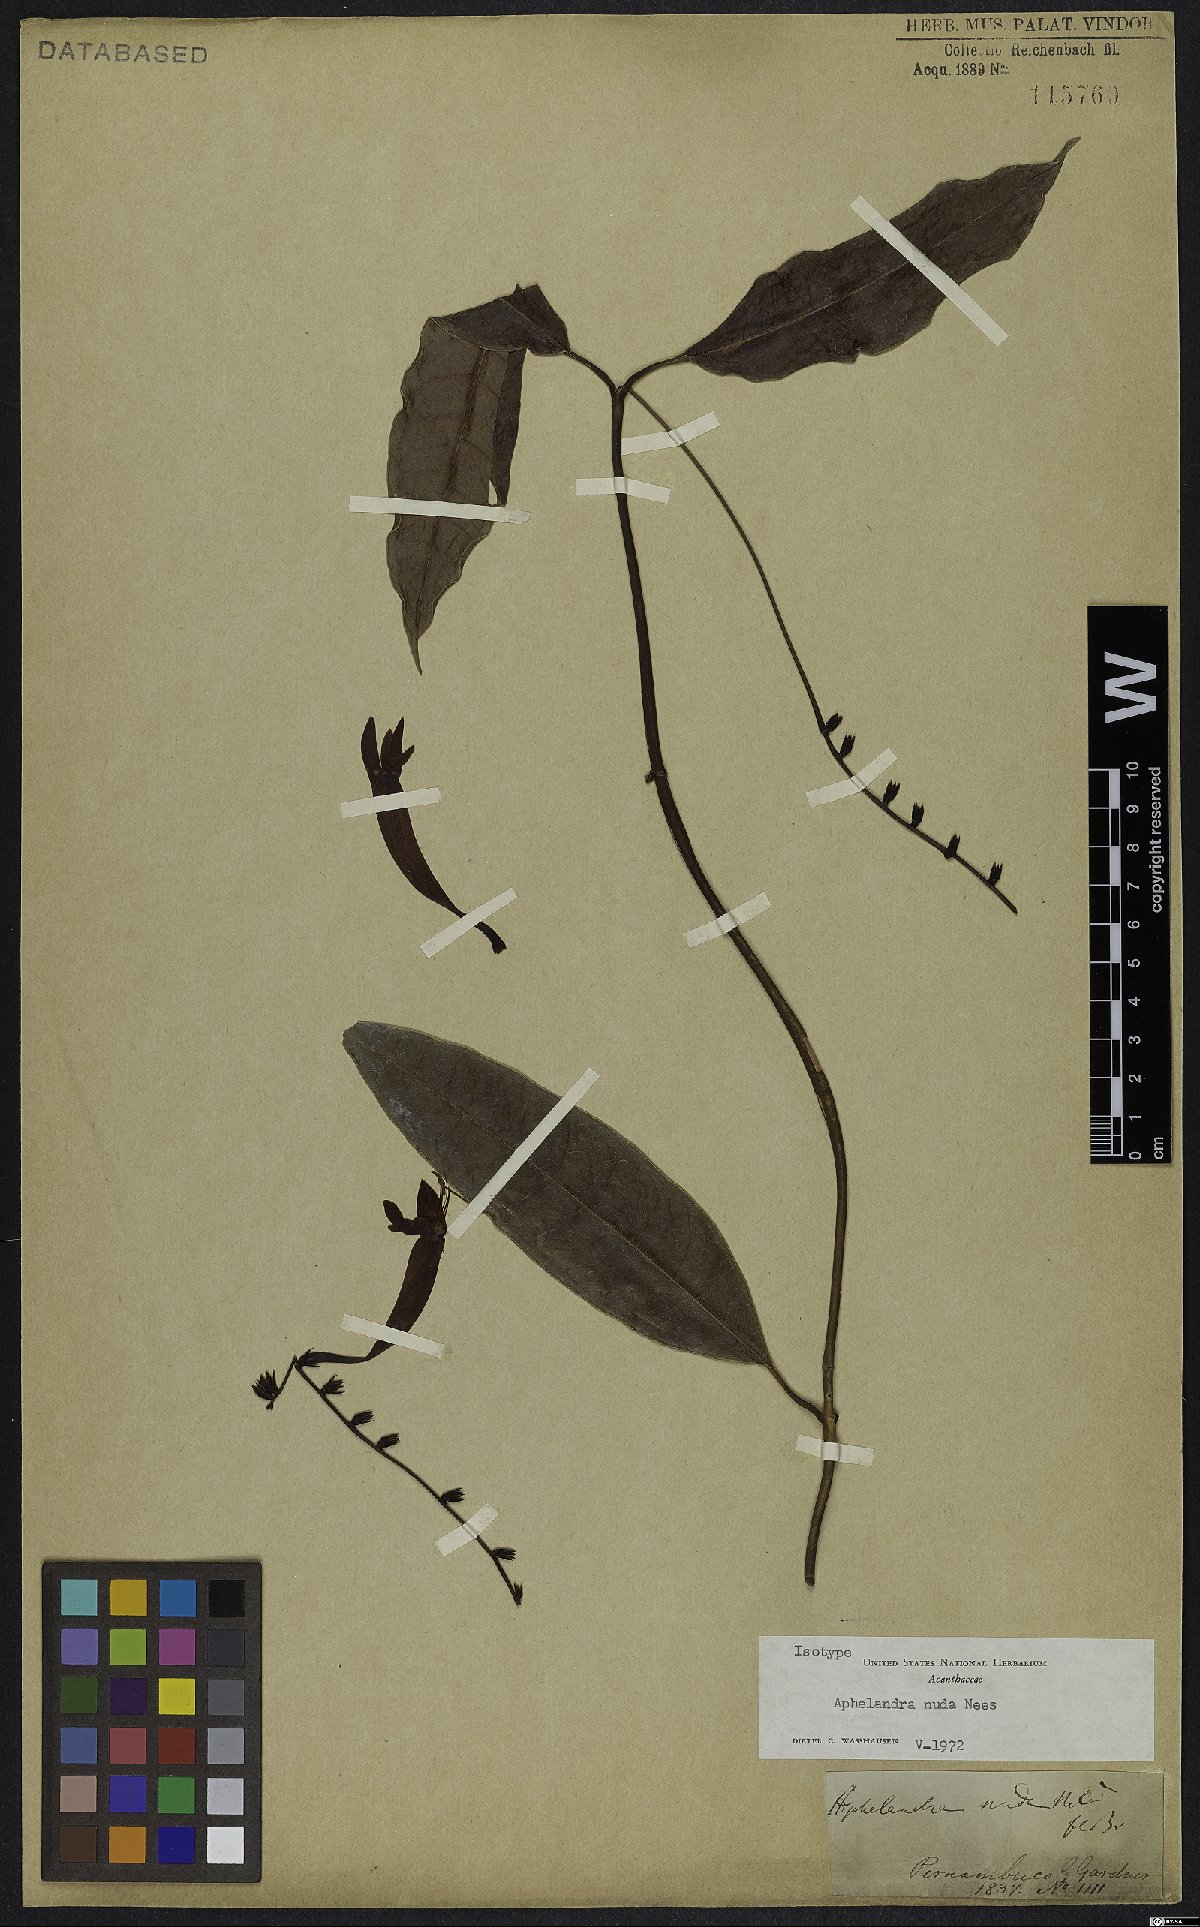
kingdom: Plantae
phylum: Tracheophyta
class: Magnoliopsida
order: Lamiales
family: Acanthaceae
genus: Aphelandra
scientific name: Aphelandra nuda
